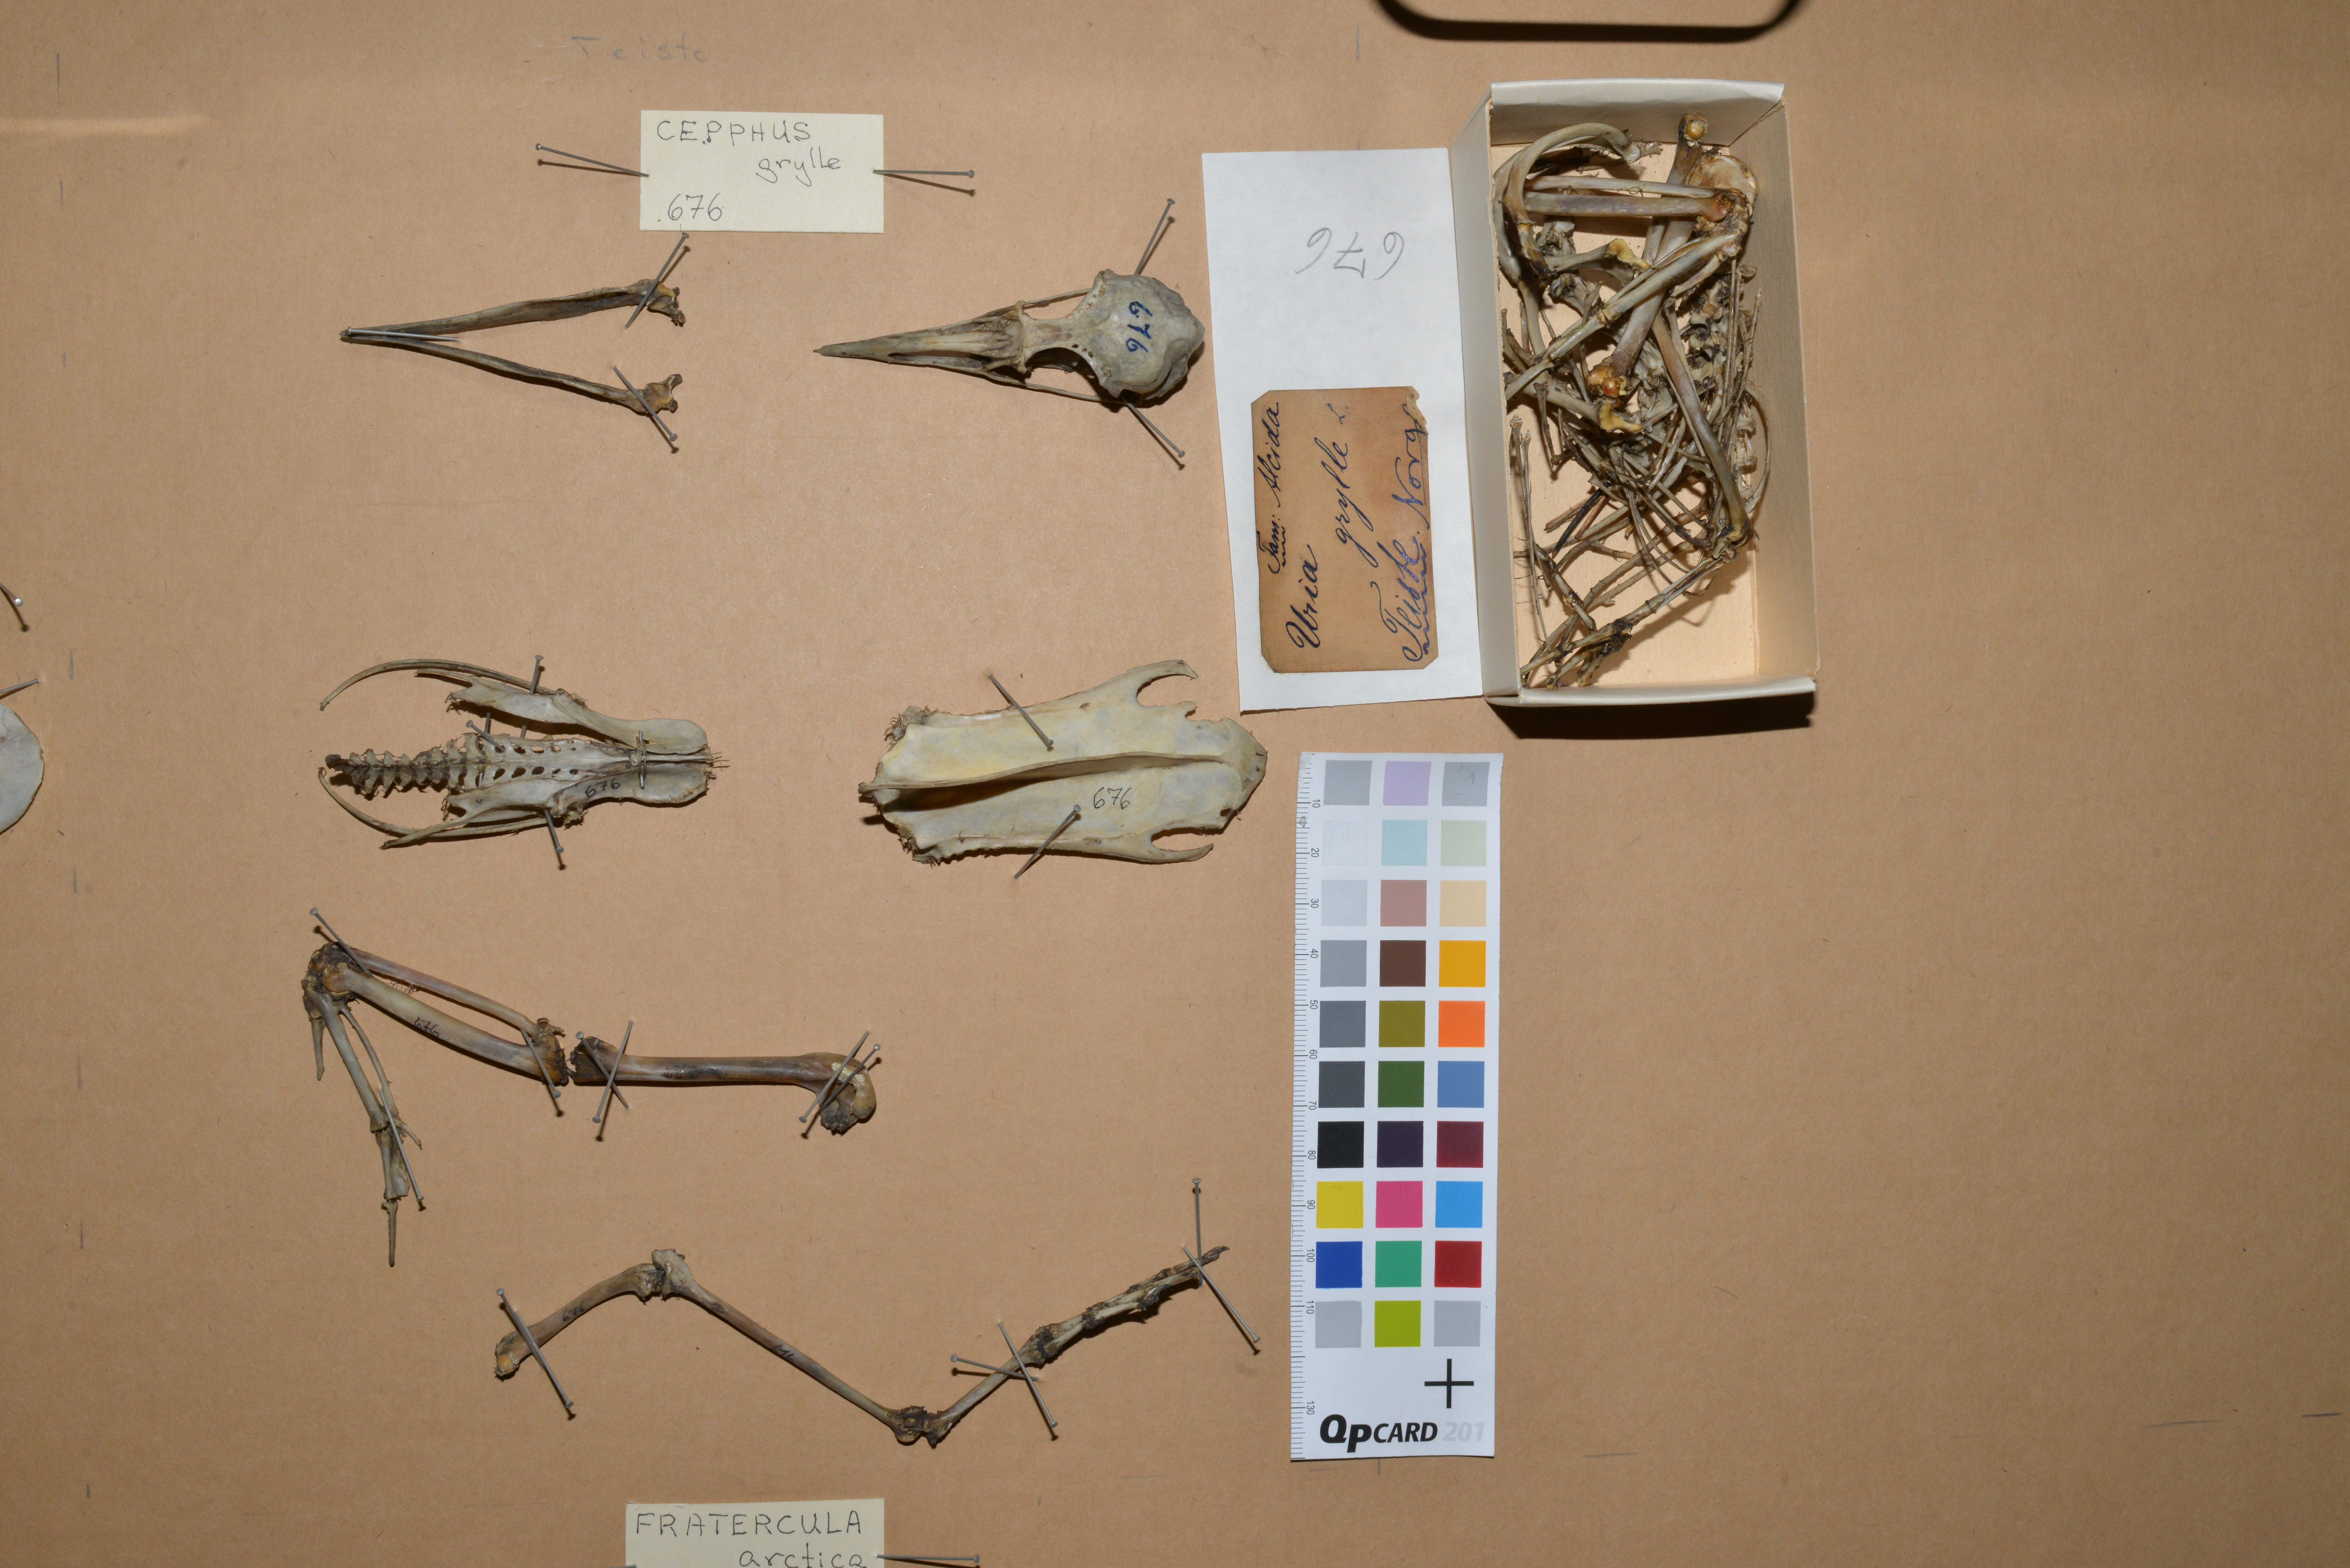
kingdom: Animalia
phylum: Chordata
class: Aves
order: Charadriiformes
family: Alcidae
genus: Cepphus
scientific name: Cepphus grylle
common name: Black guillemot
